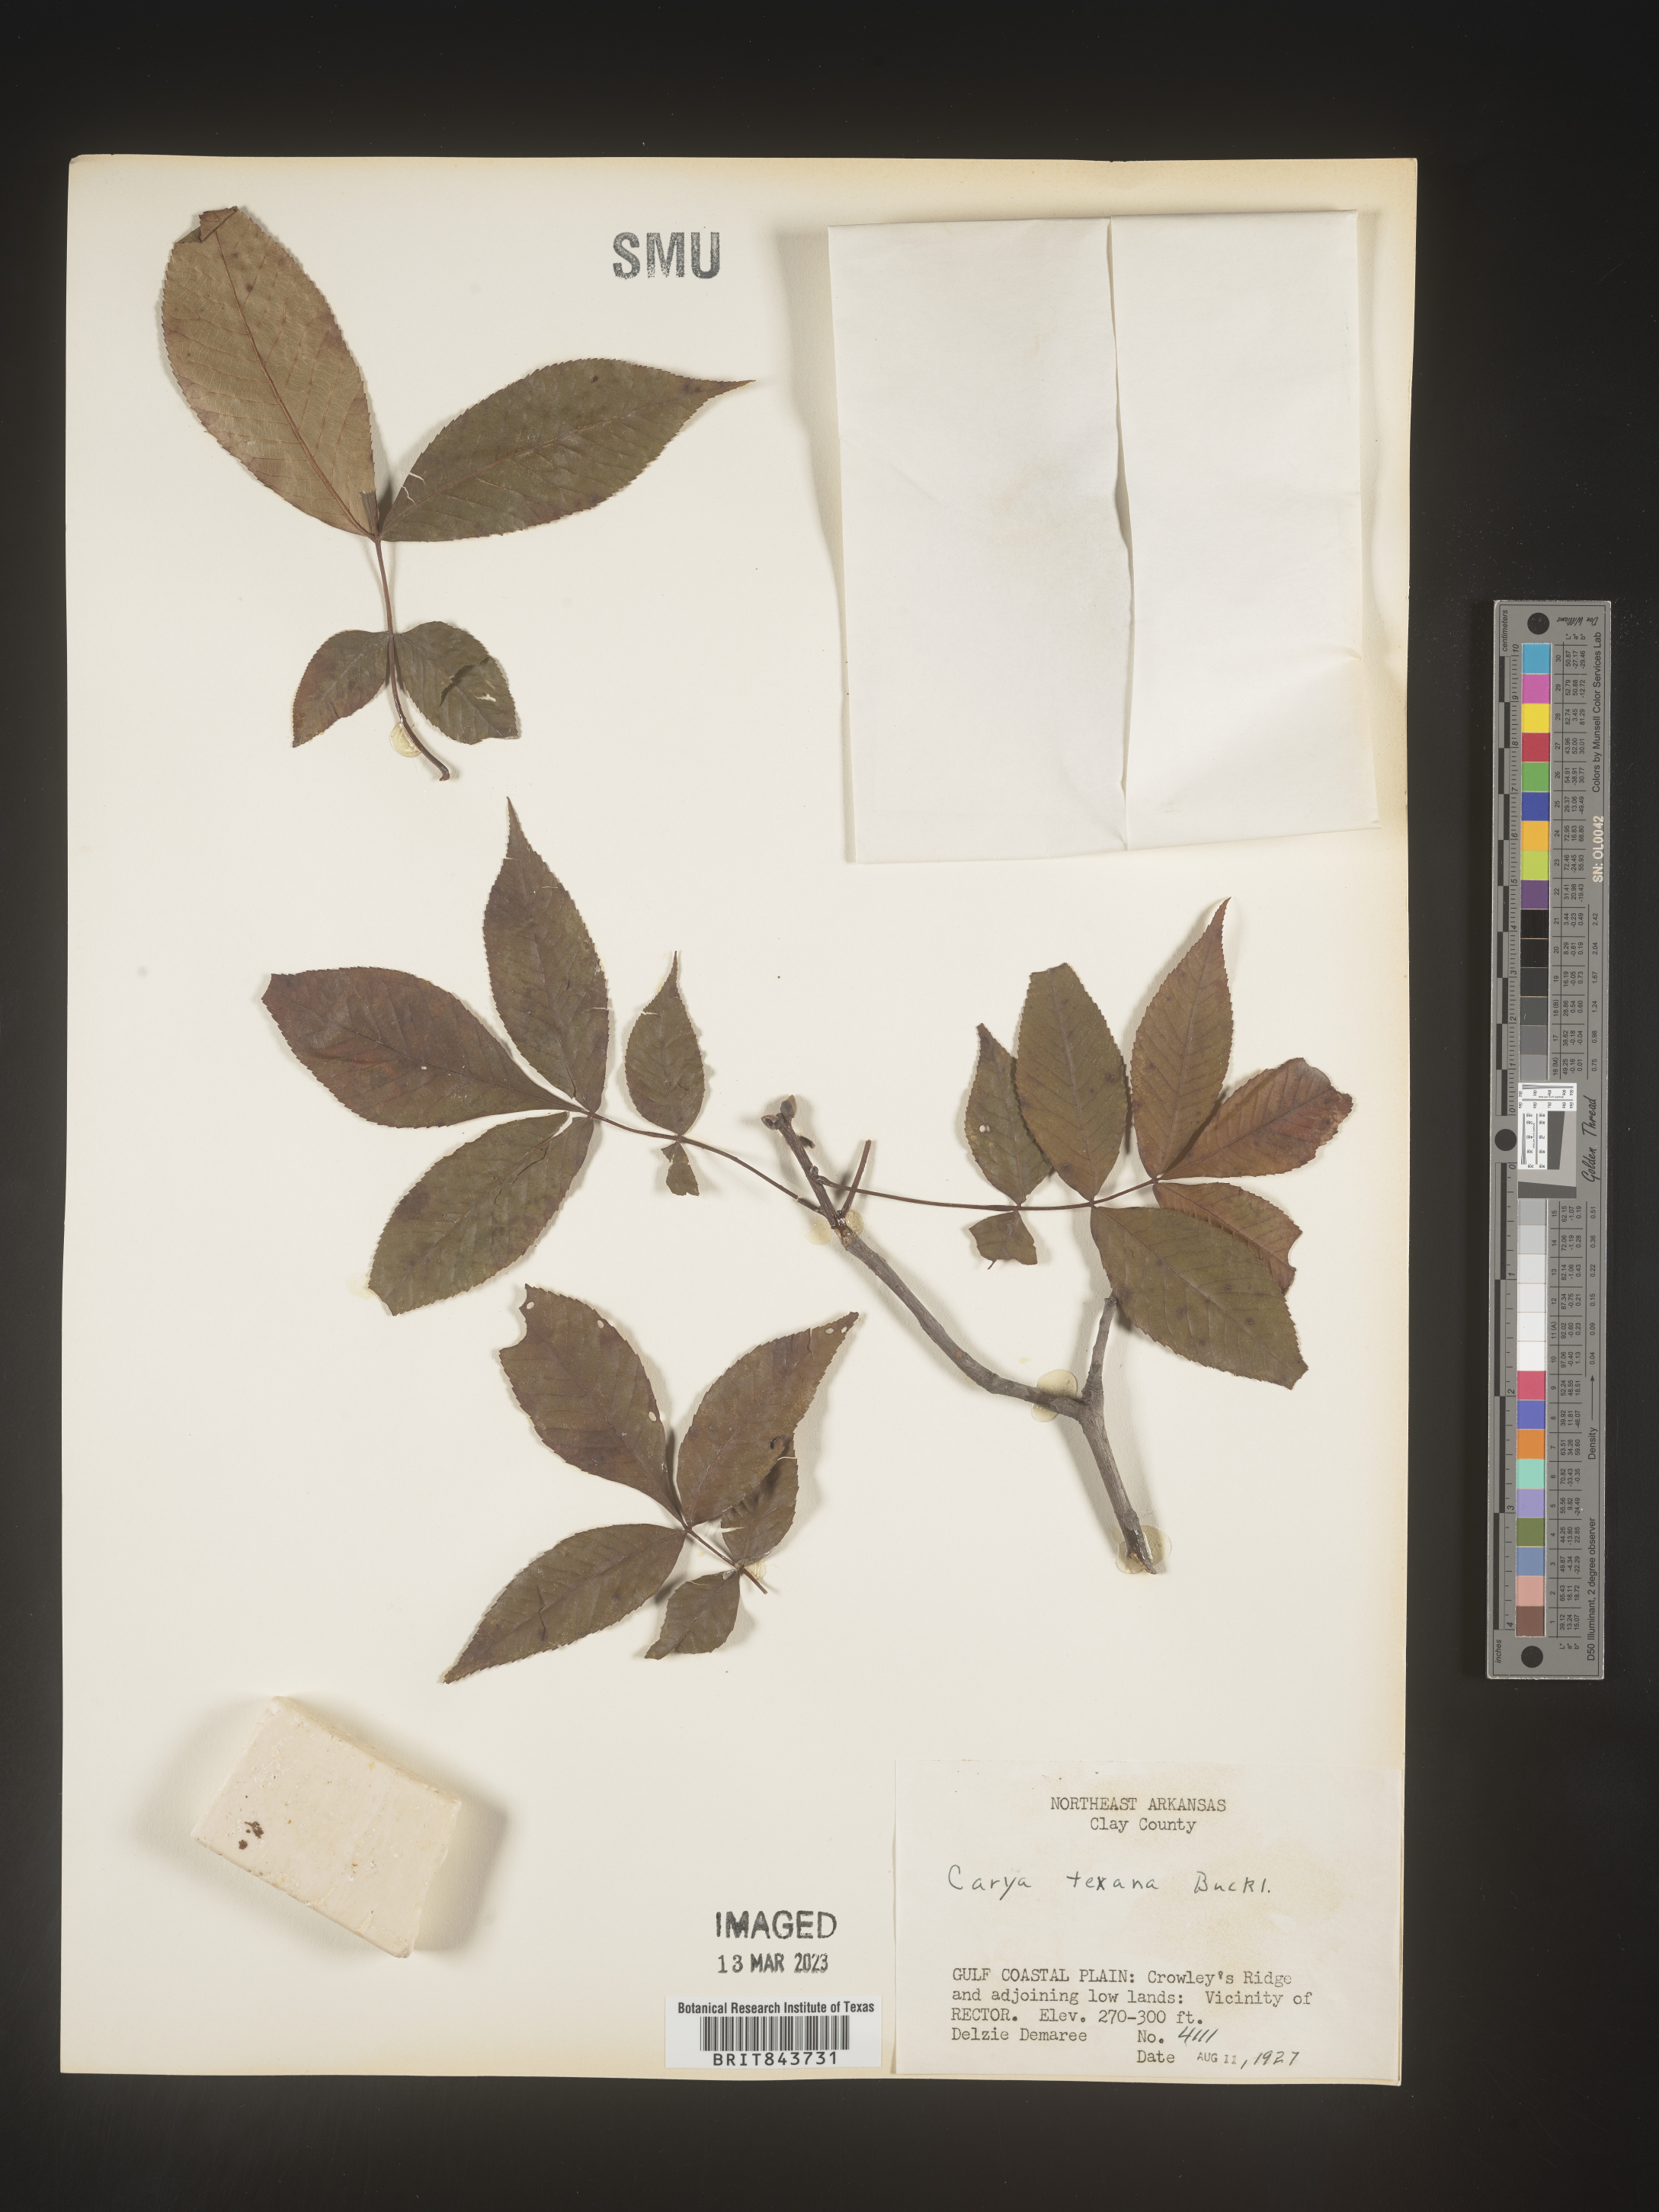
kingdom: Plantae
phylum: Tracheophyta
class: Magnoliopsida
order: Fagales
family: Juglandaceae
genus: Carya
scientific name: Carya texana
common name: Black hickory
